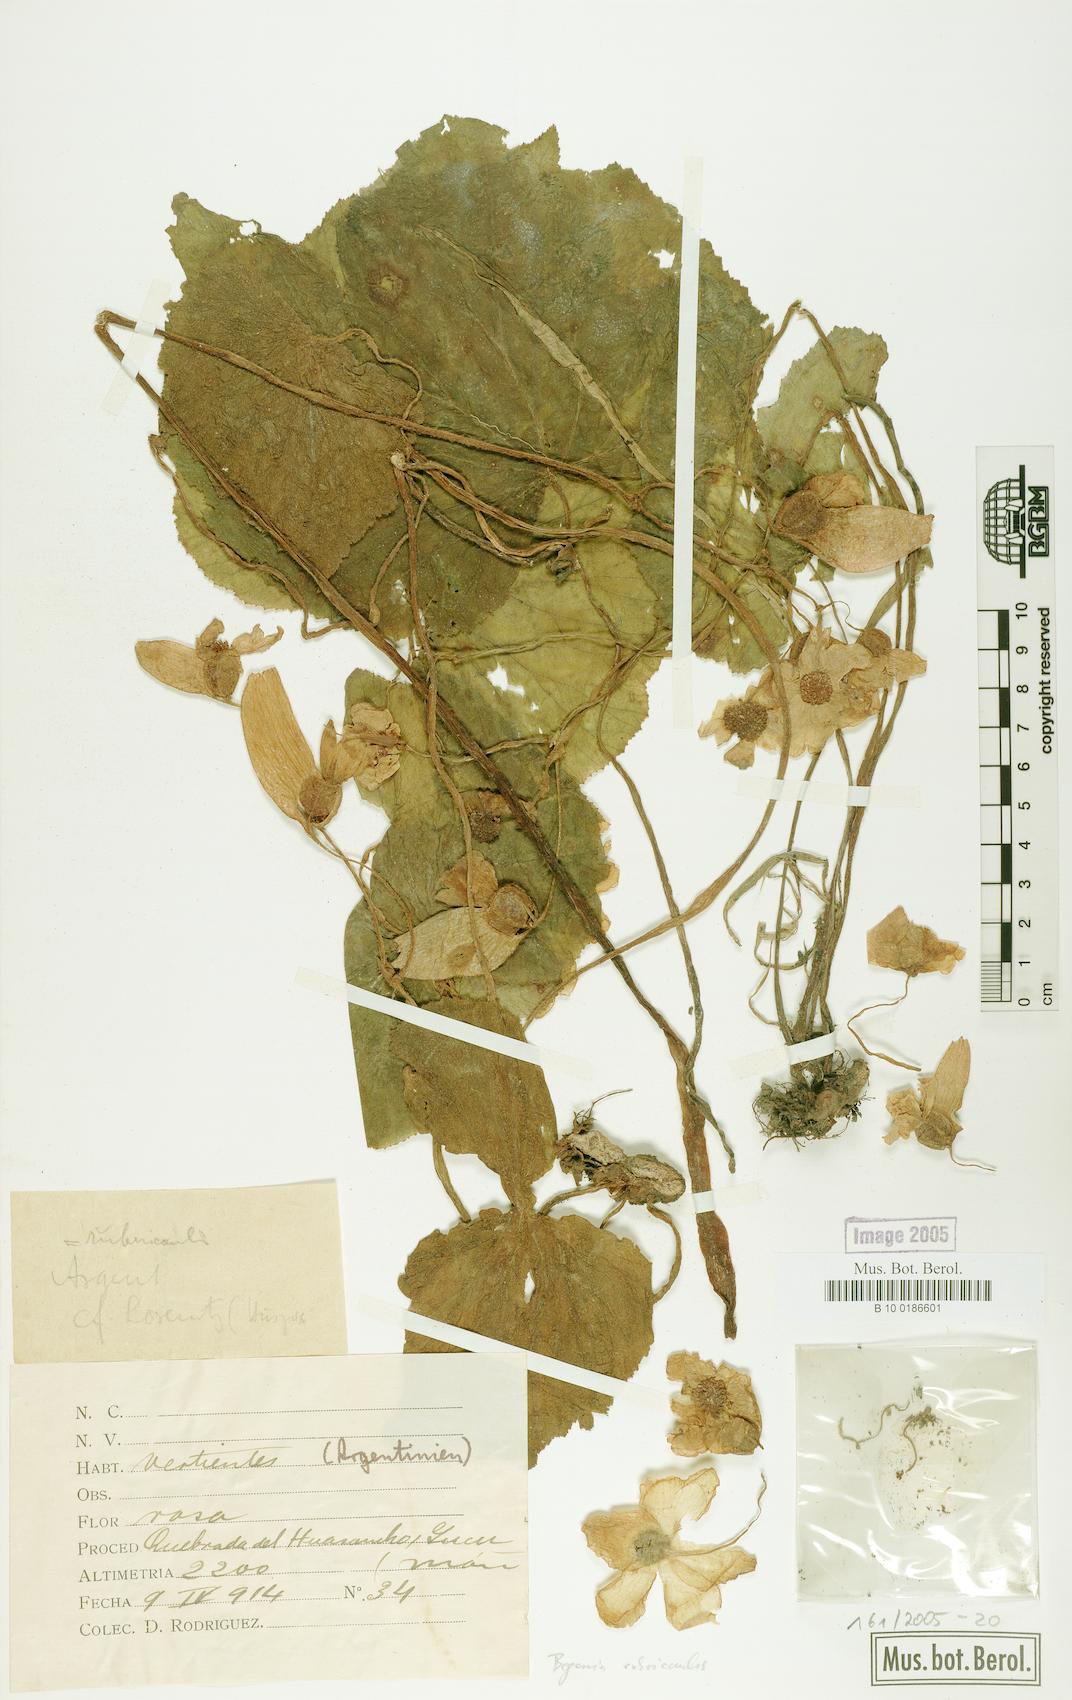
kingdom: Plantae
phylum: Tracheophyta
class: Magnoliopsida
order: Cucurbitales
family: Begoniaceae
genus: Begonia
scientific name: Begonia rubricaulis
